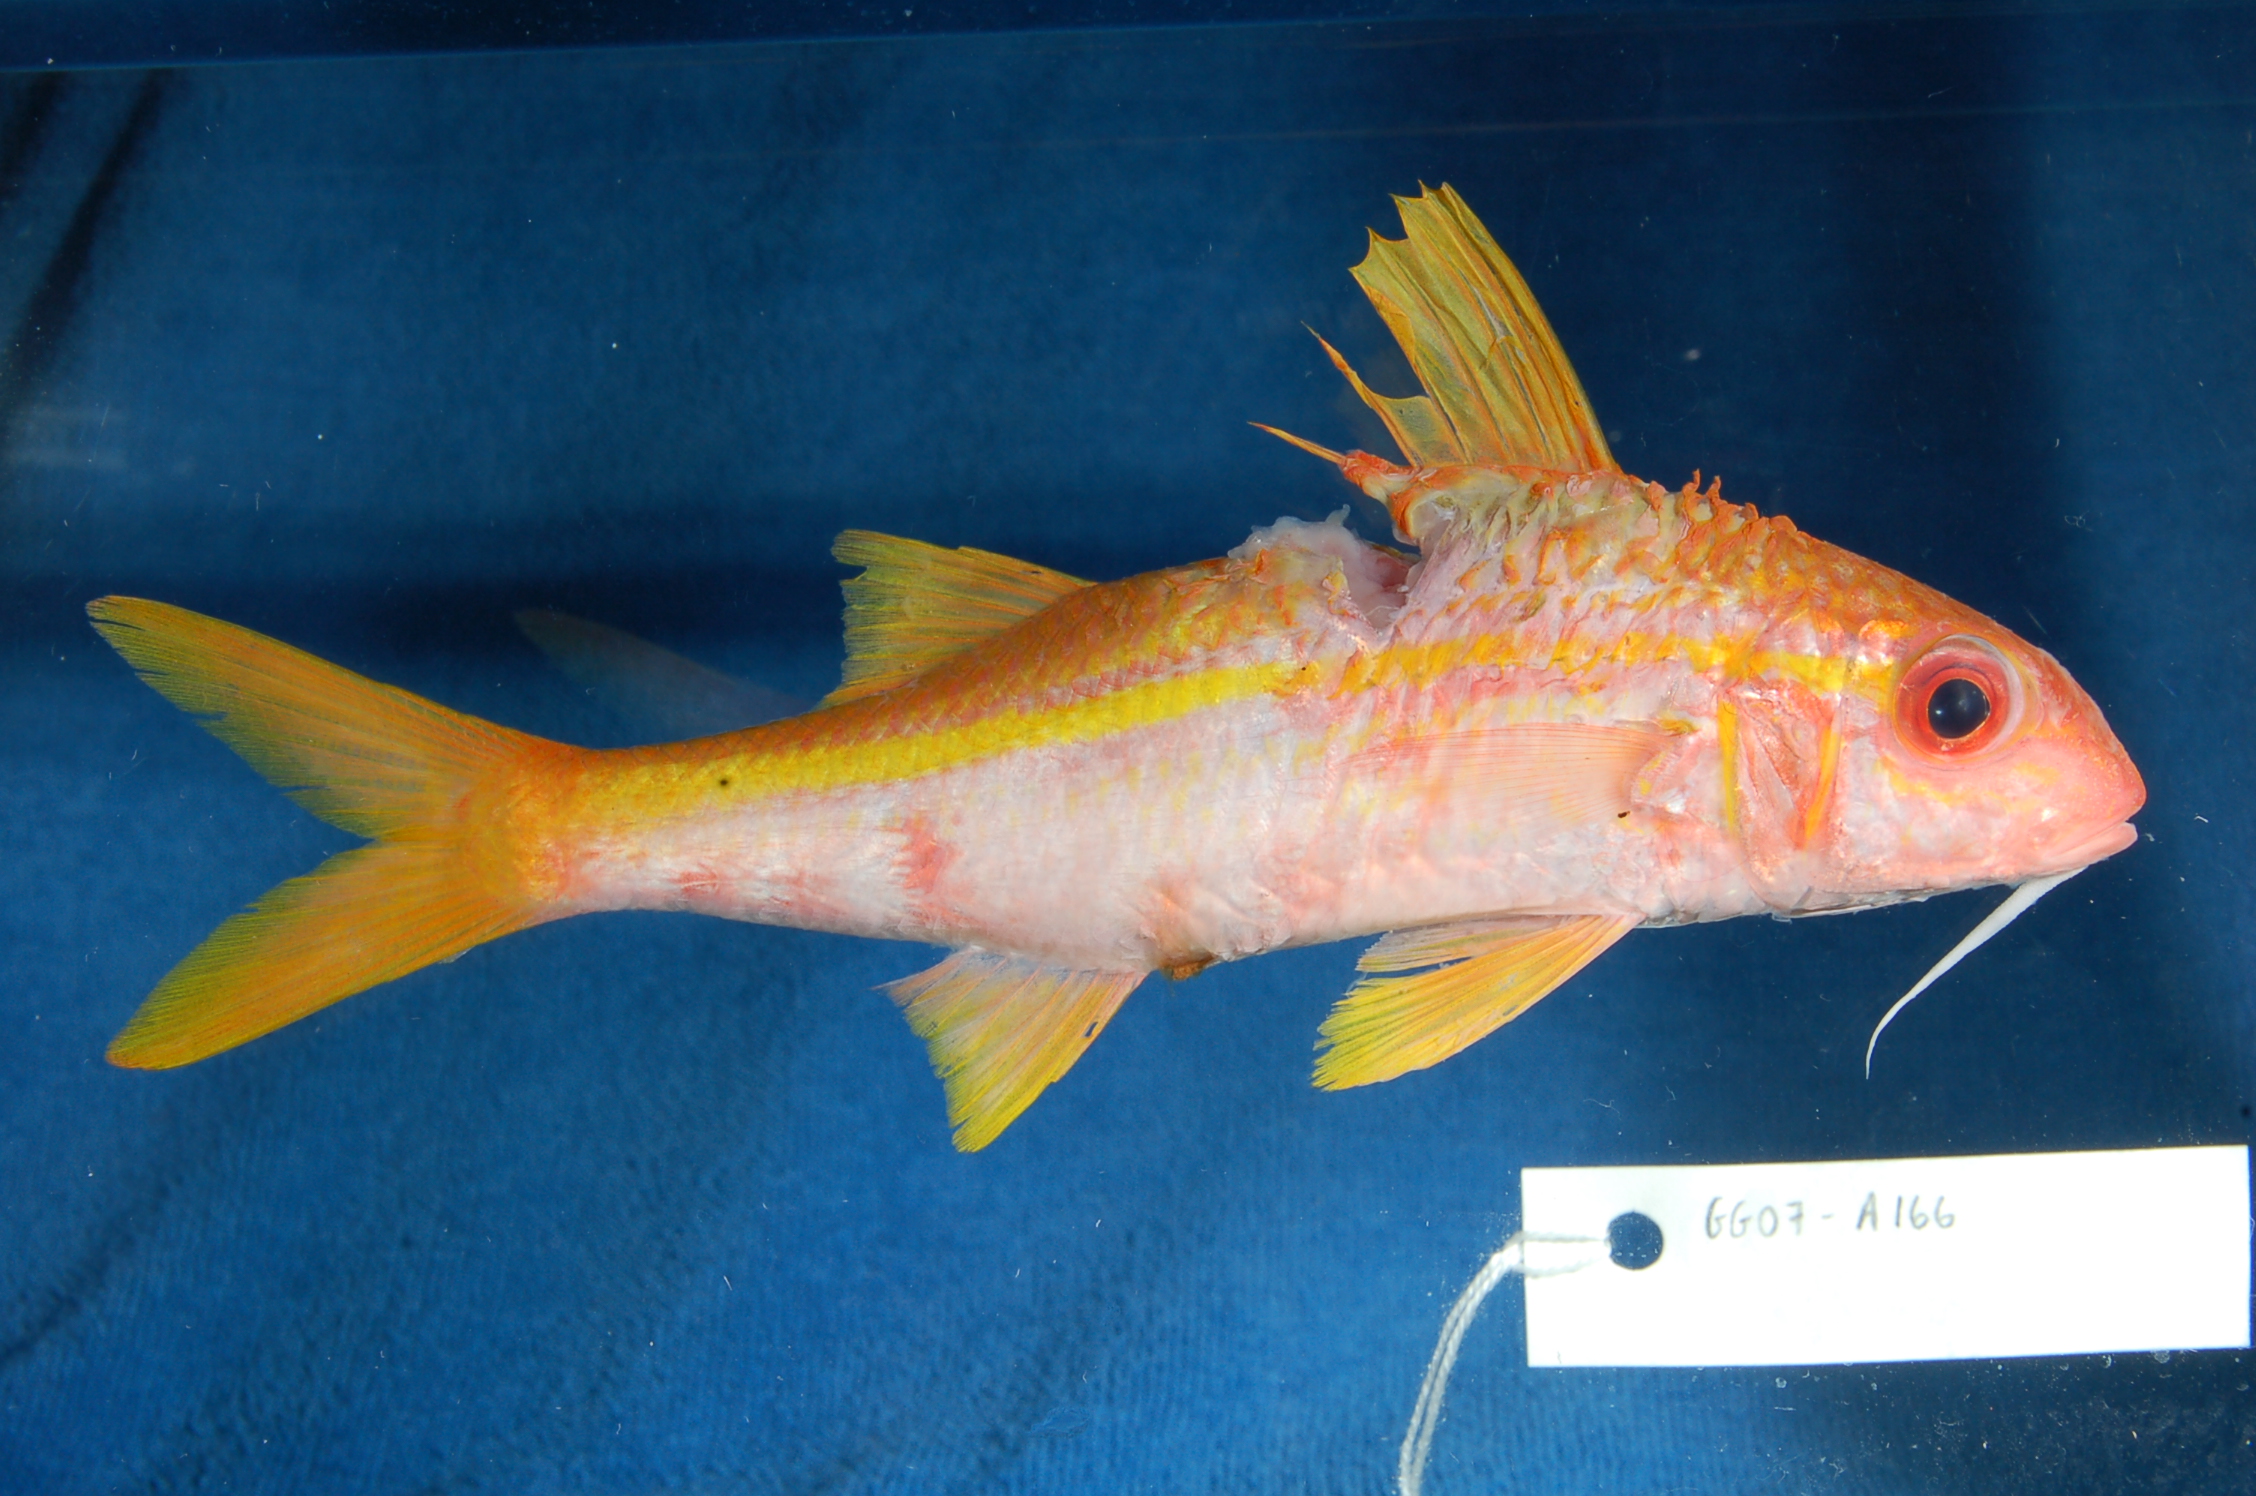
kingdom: Animalia
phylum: Chordata
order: Perciformes
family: Mullidae
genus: Mulloidichthys
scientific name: Mulloidichthys vanicolensis
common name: Yellowfin goatfish
